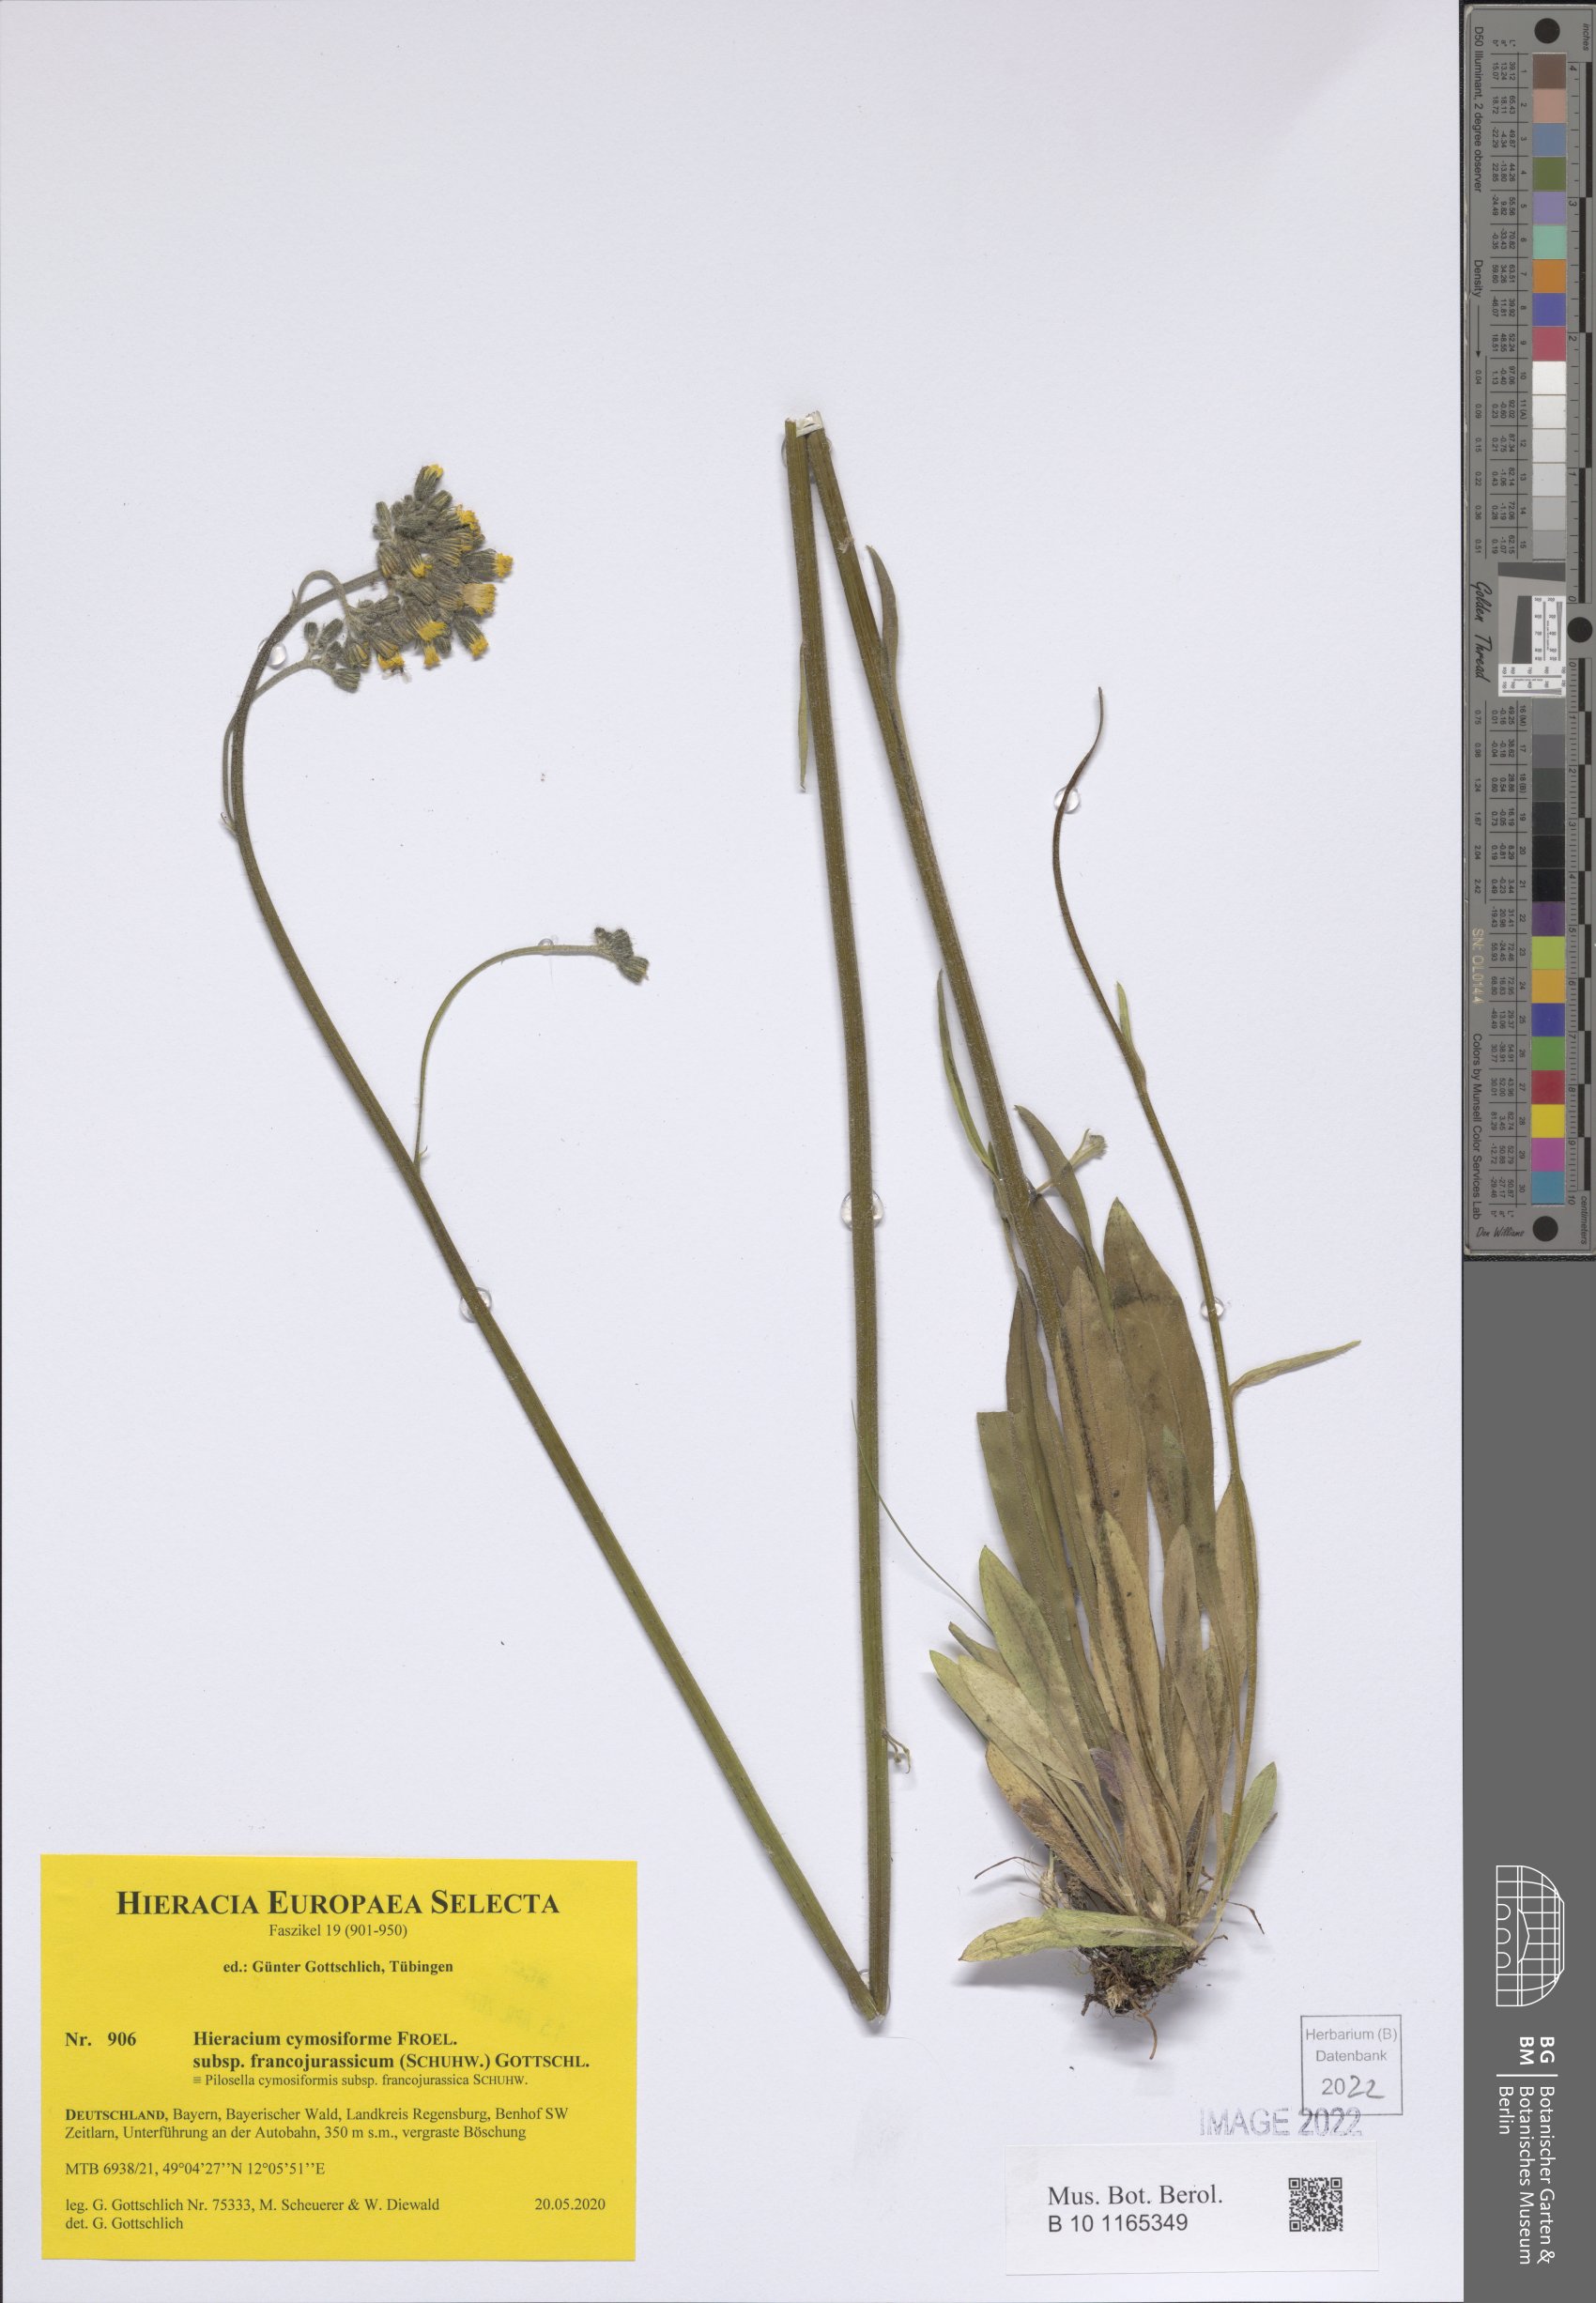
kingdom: Plantae
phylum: Tracheophyta
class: Magnoliopsida
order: Asterales
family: Asteraceae
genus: Pilosella
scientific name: Pilosella cymosiformis
